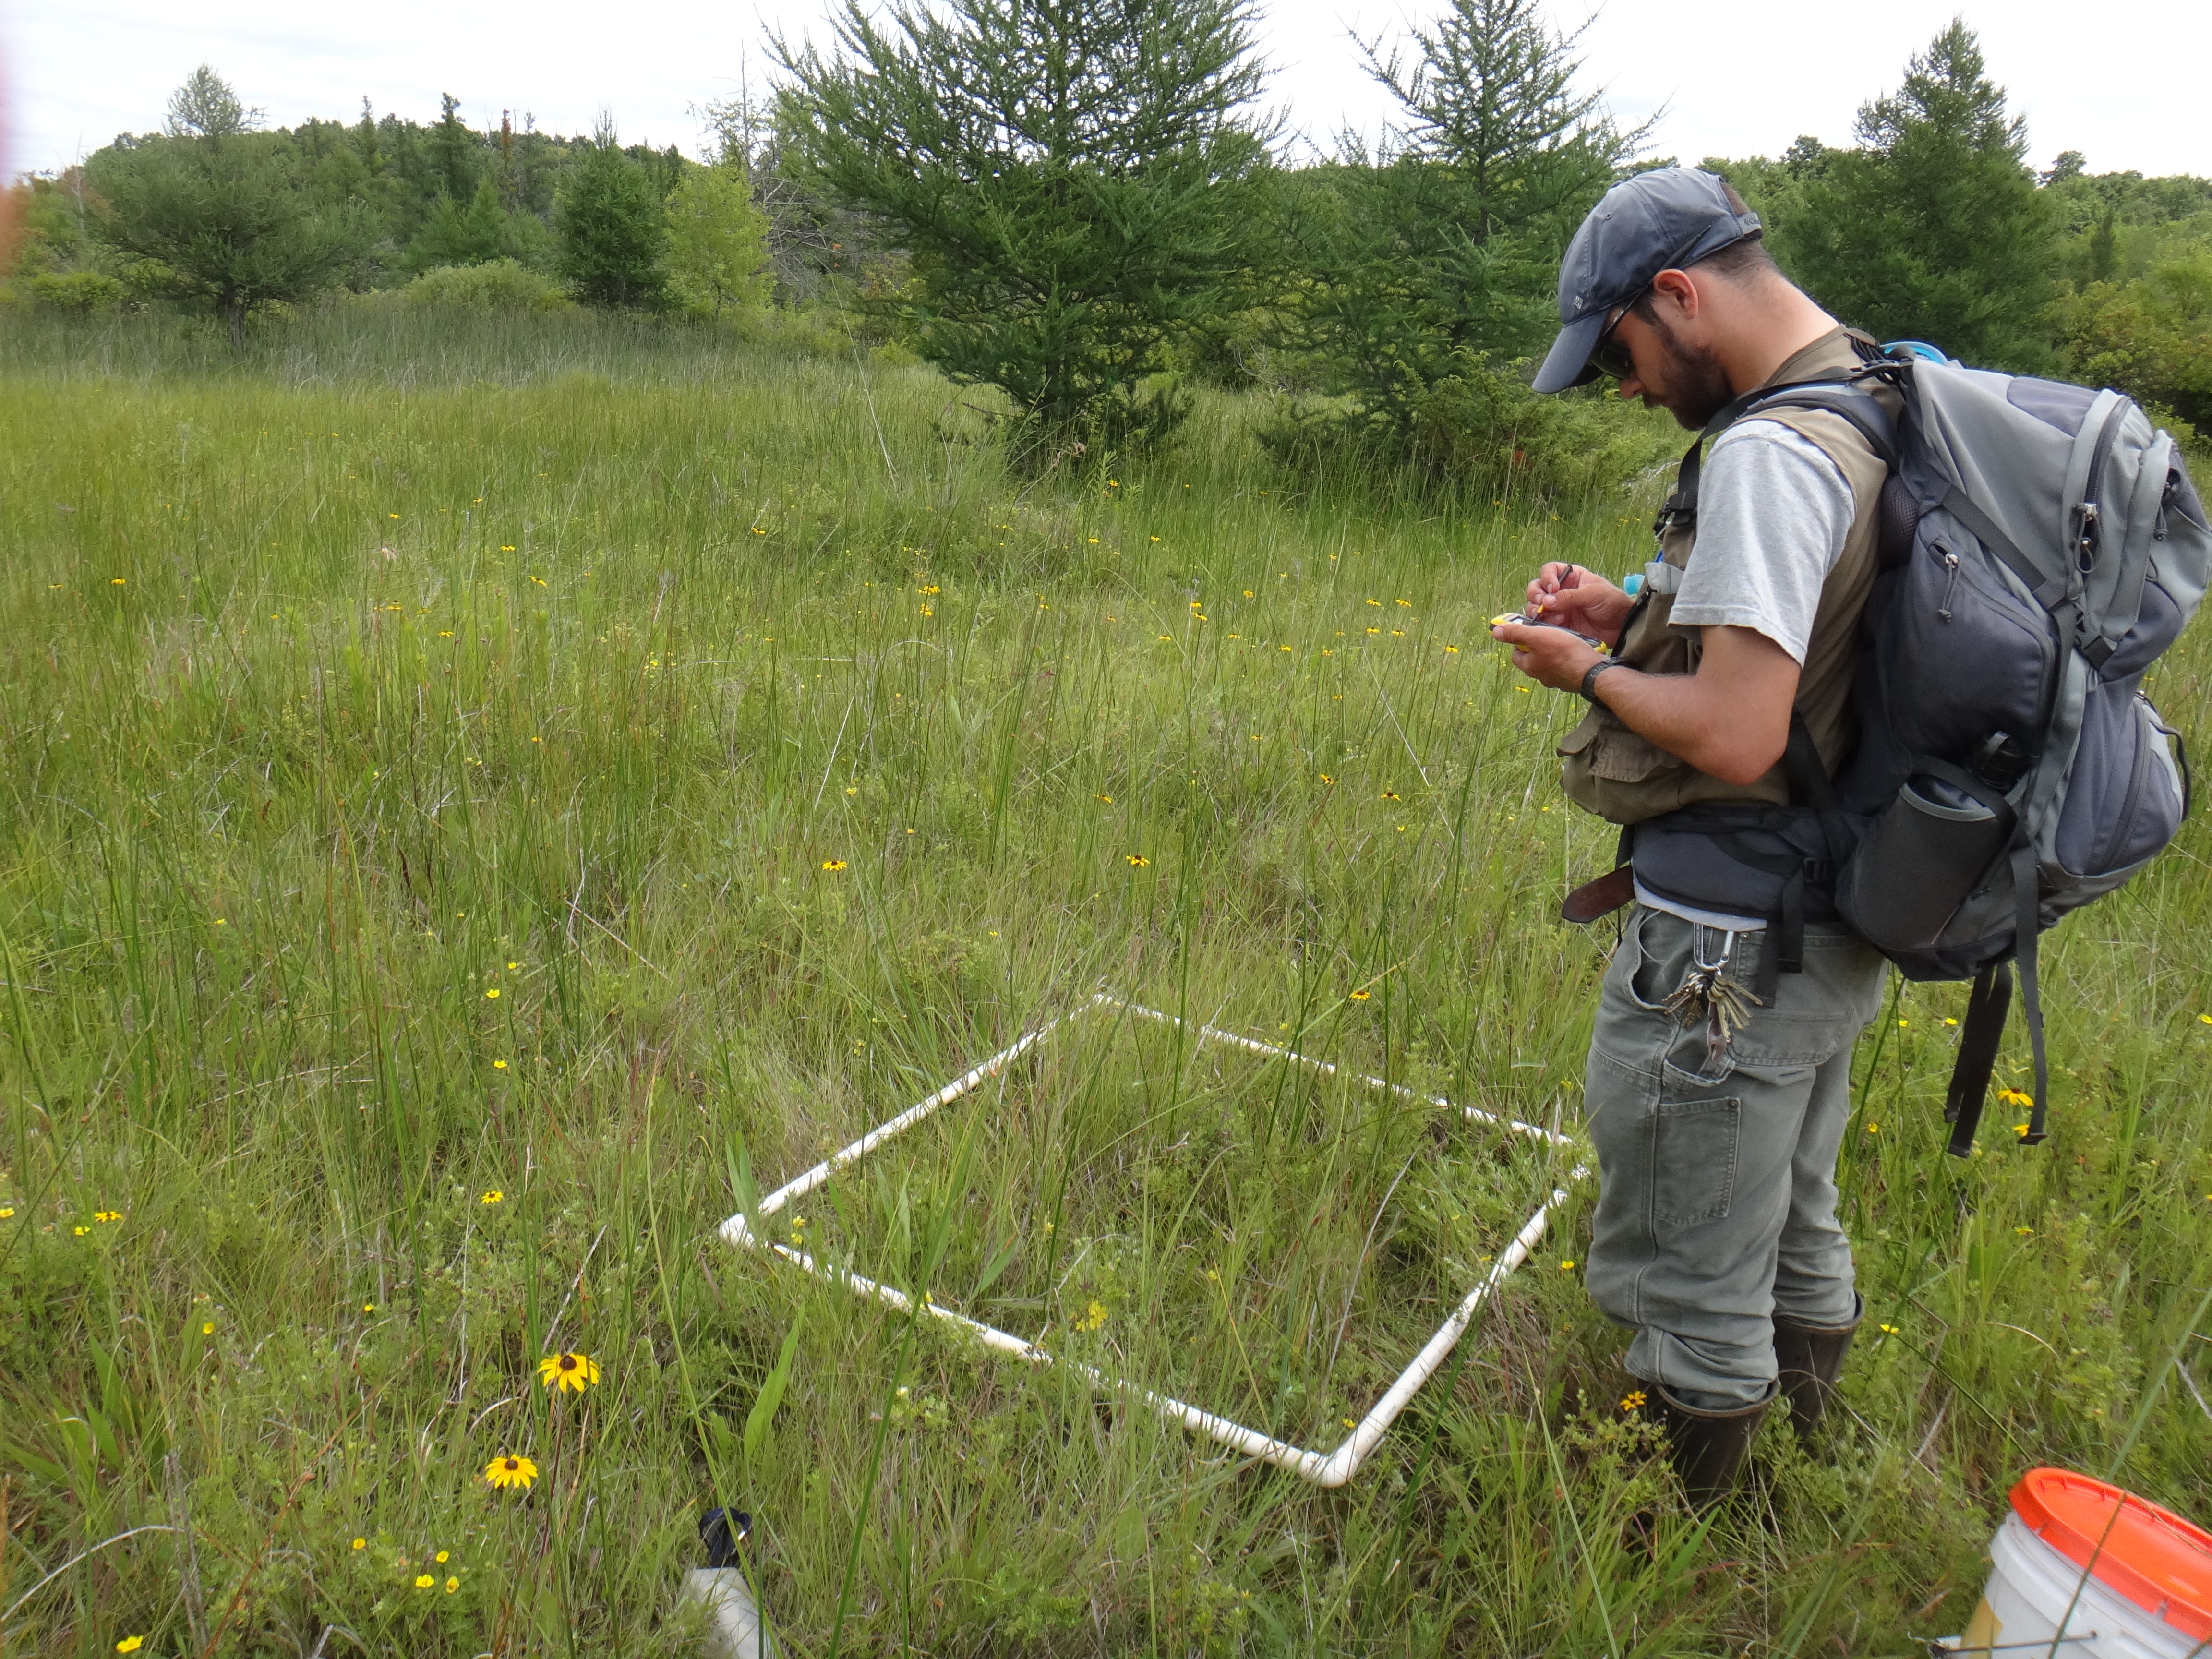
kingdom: Plantae
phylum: Tracheophyta
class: Magnoliopsida
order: Asterales
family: Asteraceae
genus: Rudbeckia
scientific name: Rudbeckia hirta
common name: Black-eyed-susan
